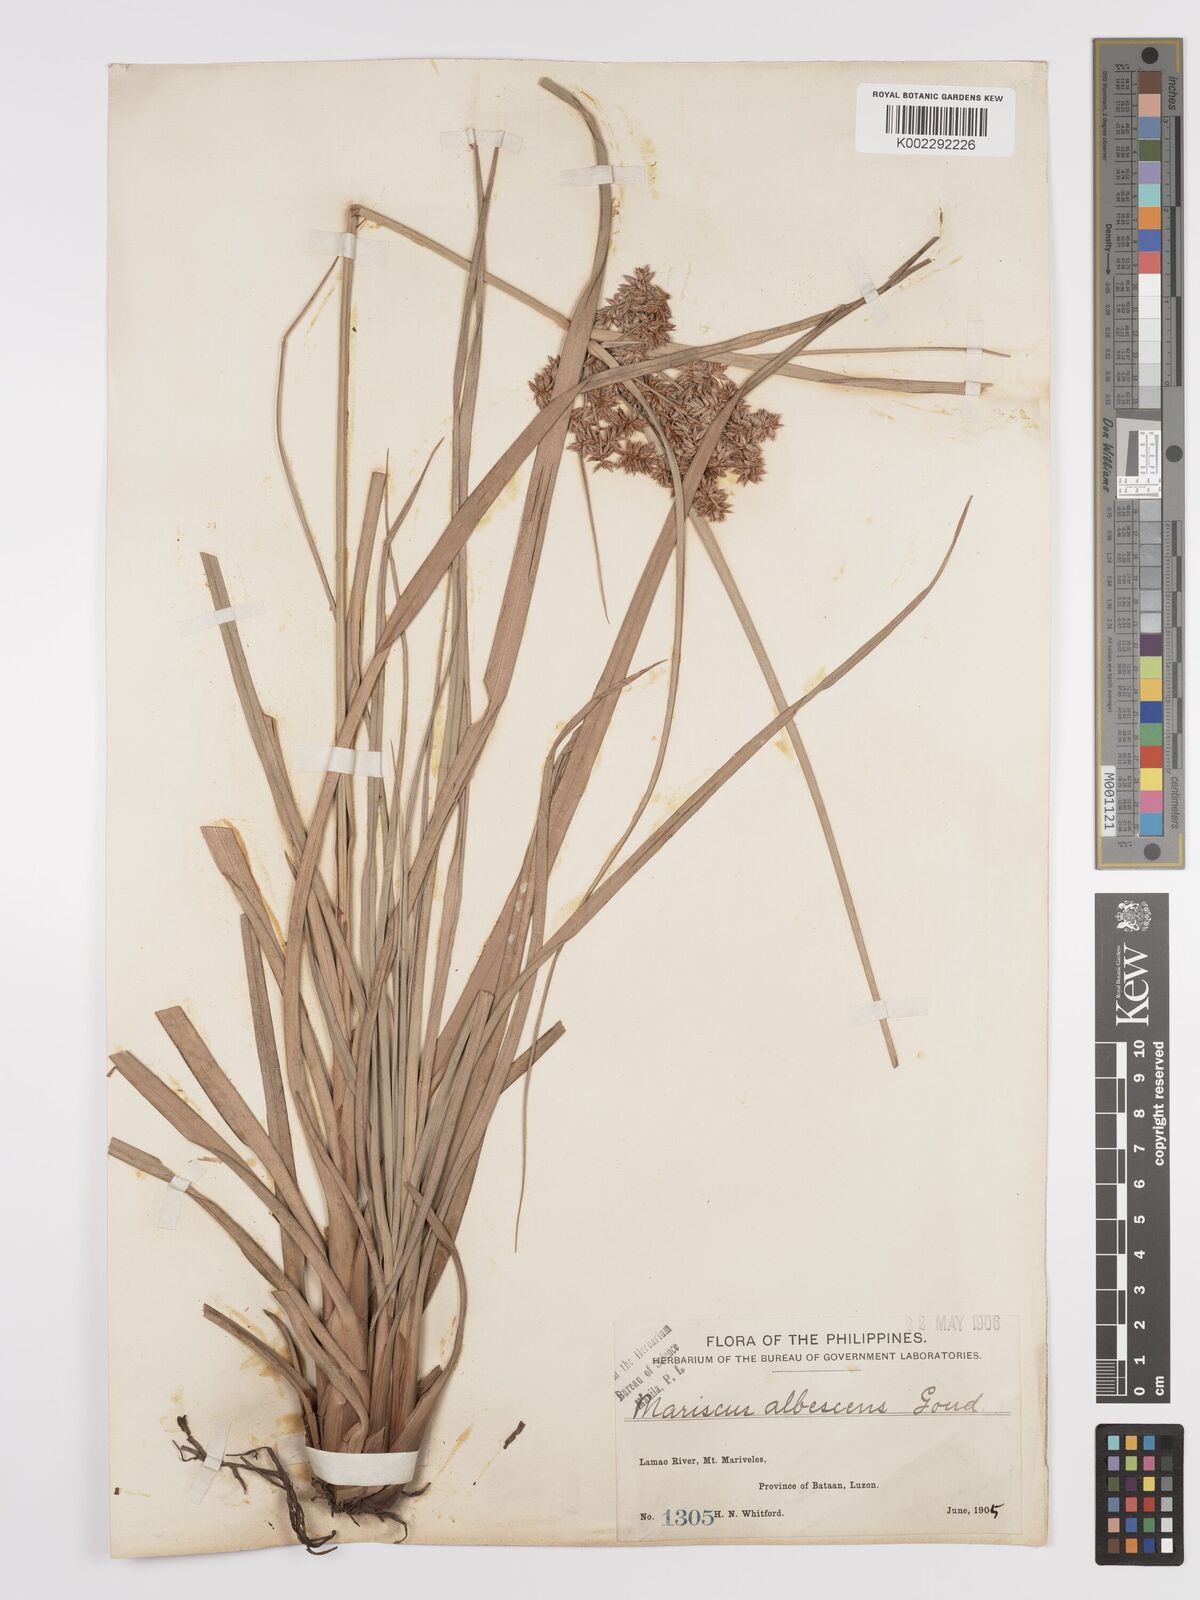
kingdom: Plantae
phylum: Tracheophyta
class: Liliopsida
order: Poales
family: Cyperaceae
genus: Cyperus
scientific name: Cyperus javanicus
